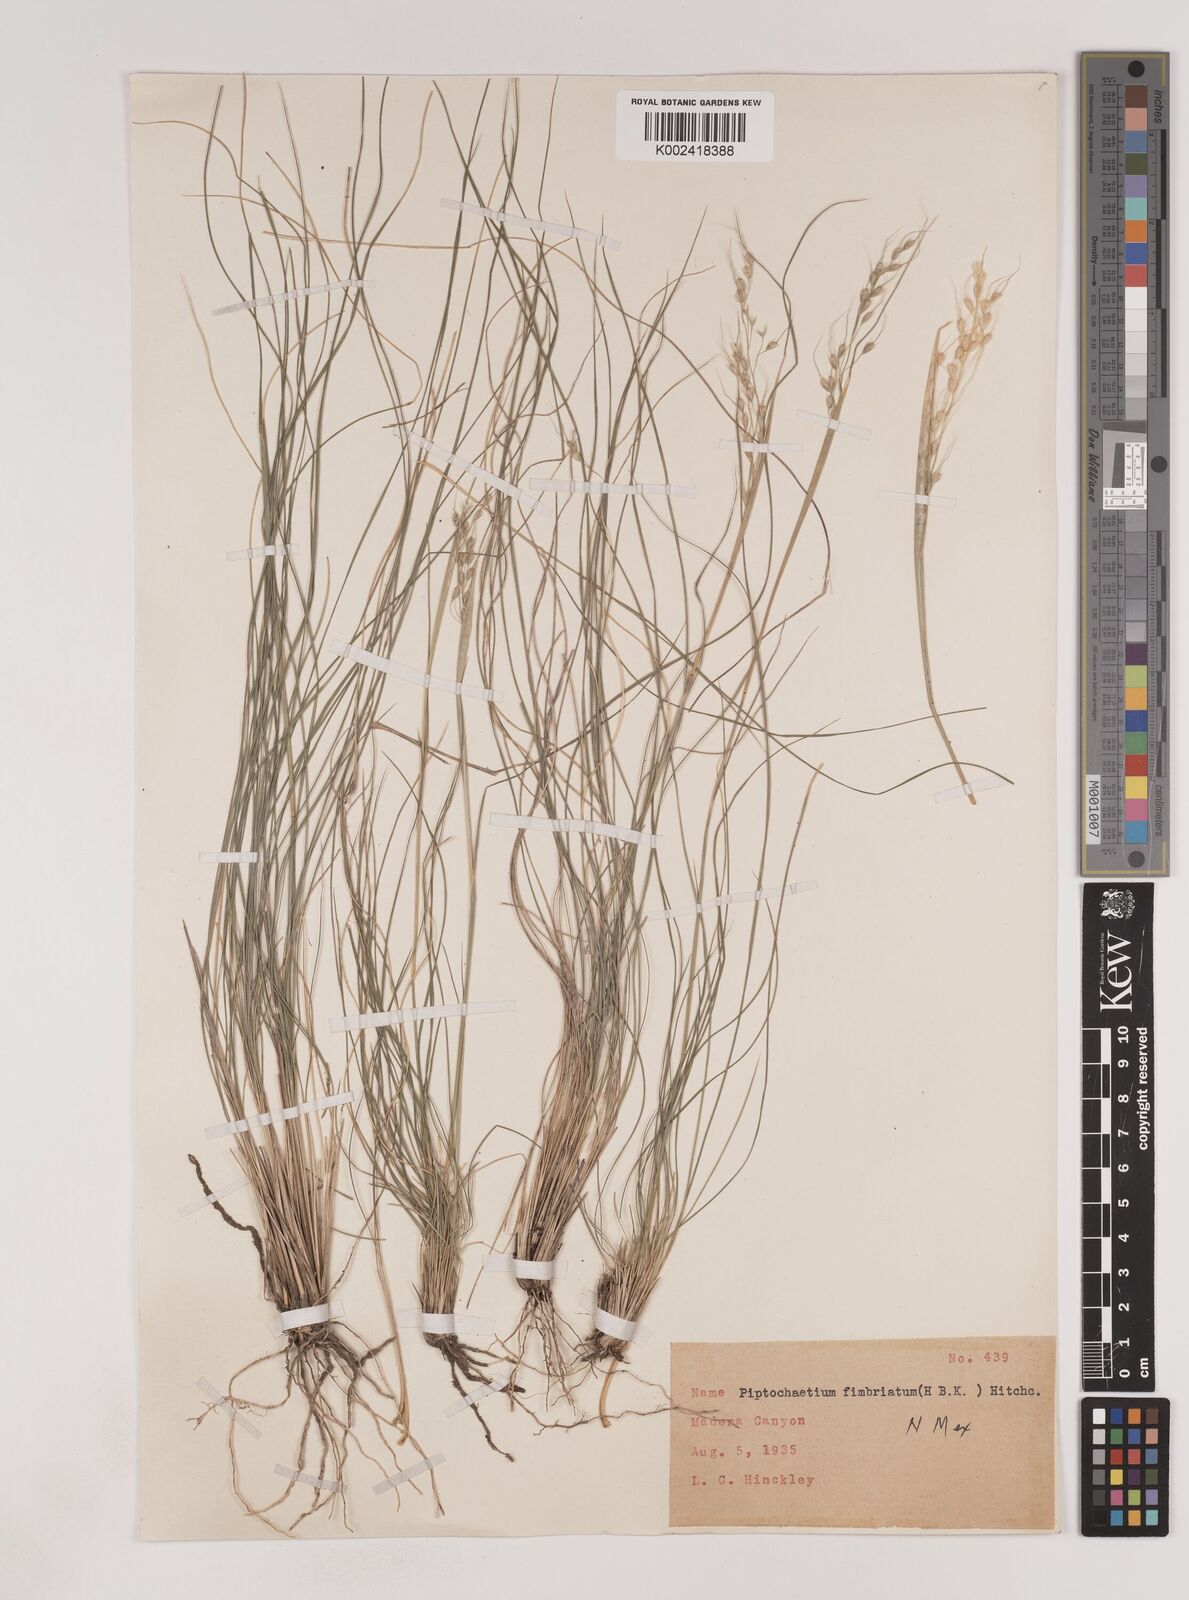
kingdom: Plantae
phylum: Tracheophyta
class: Liliopsida
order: Poales
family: Poaceae
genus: Piptochaetium
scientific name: Piptochaetium fimbriatum
